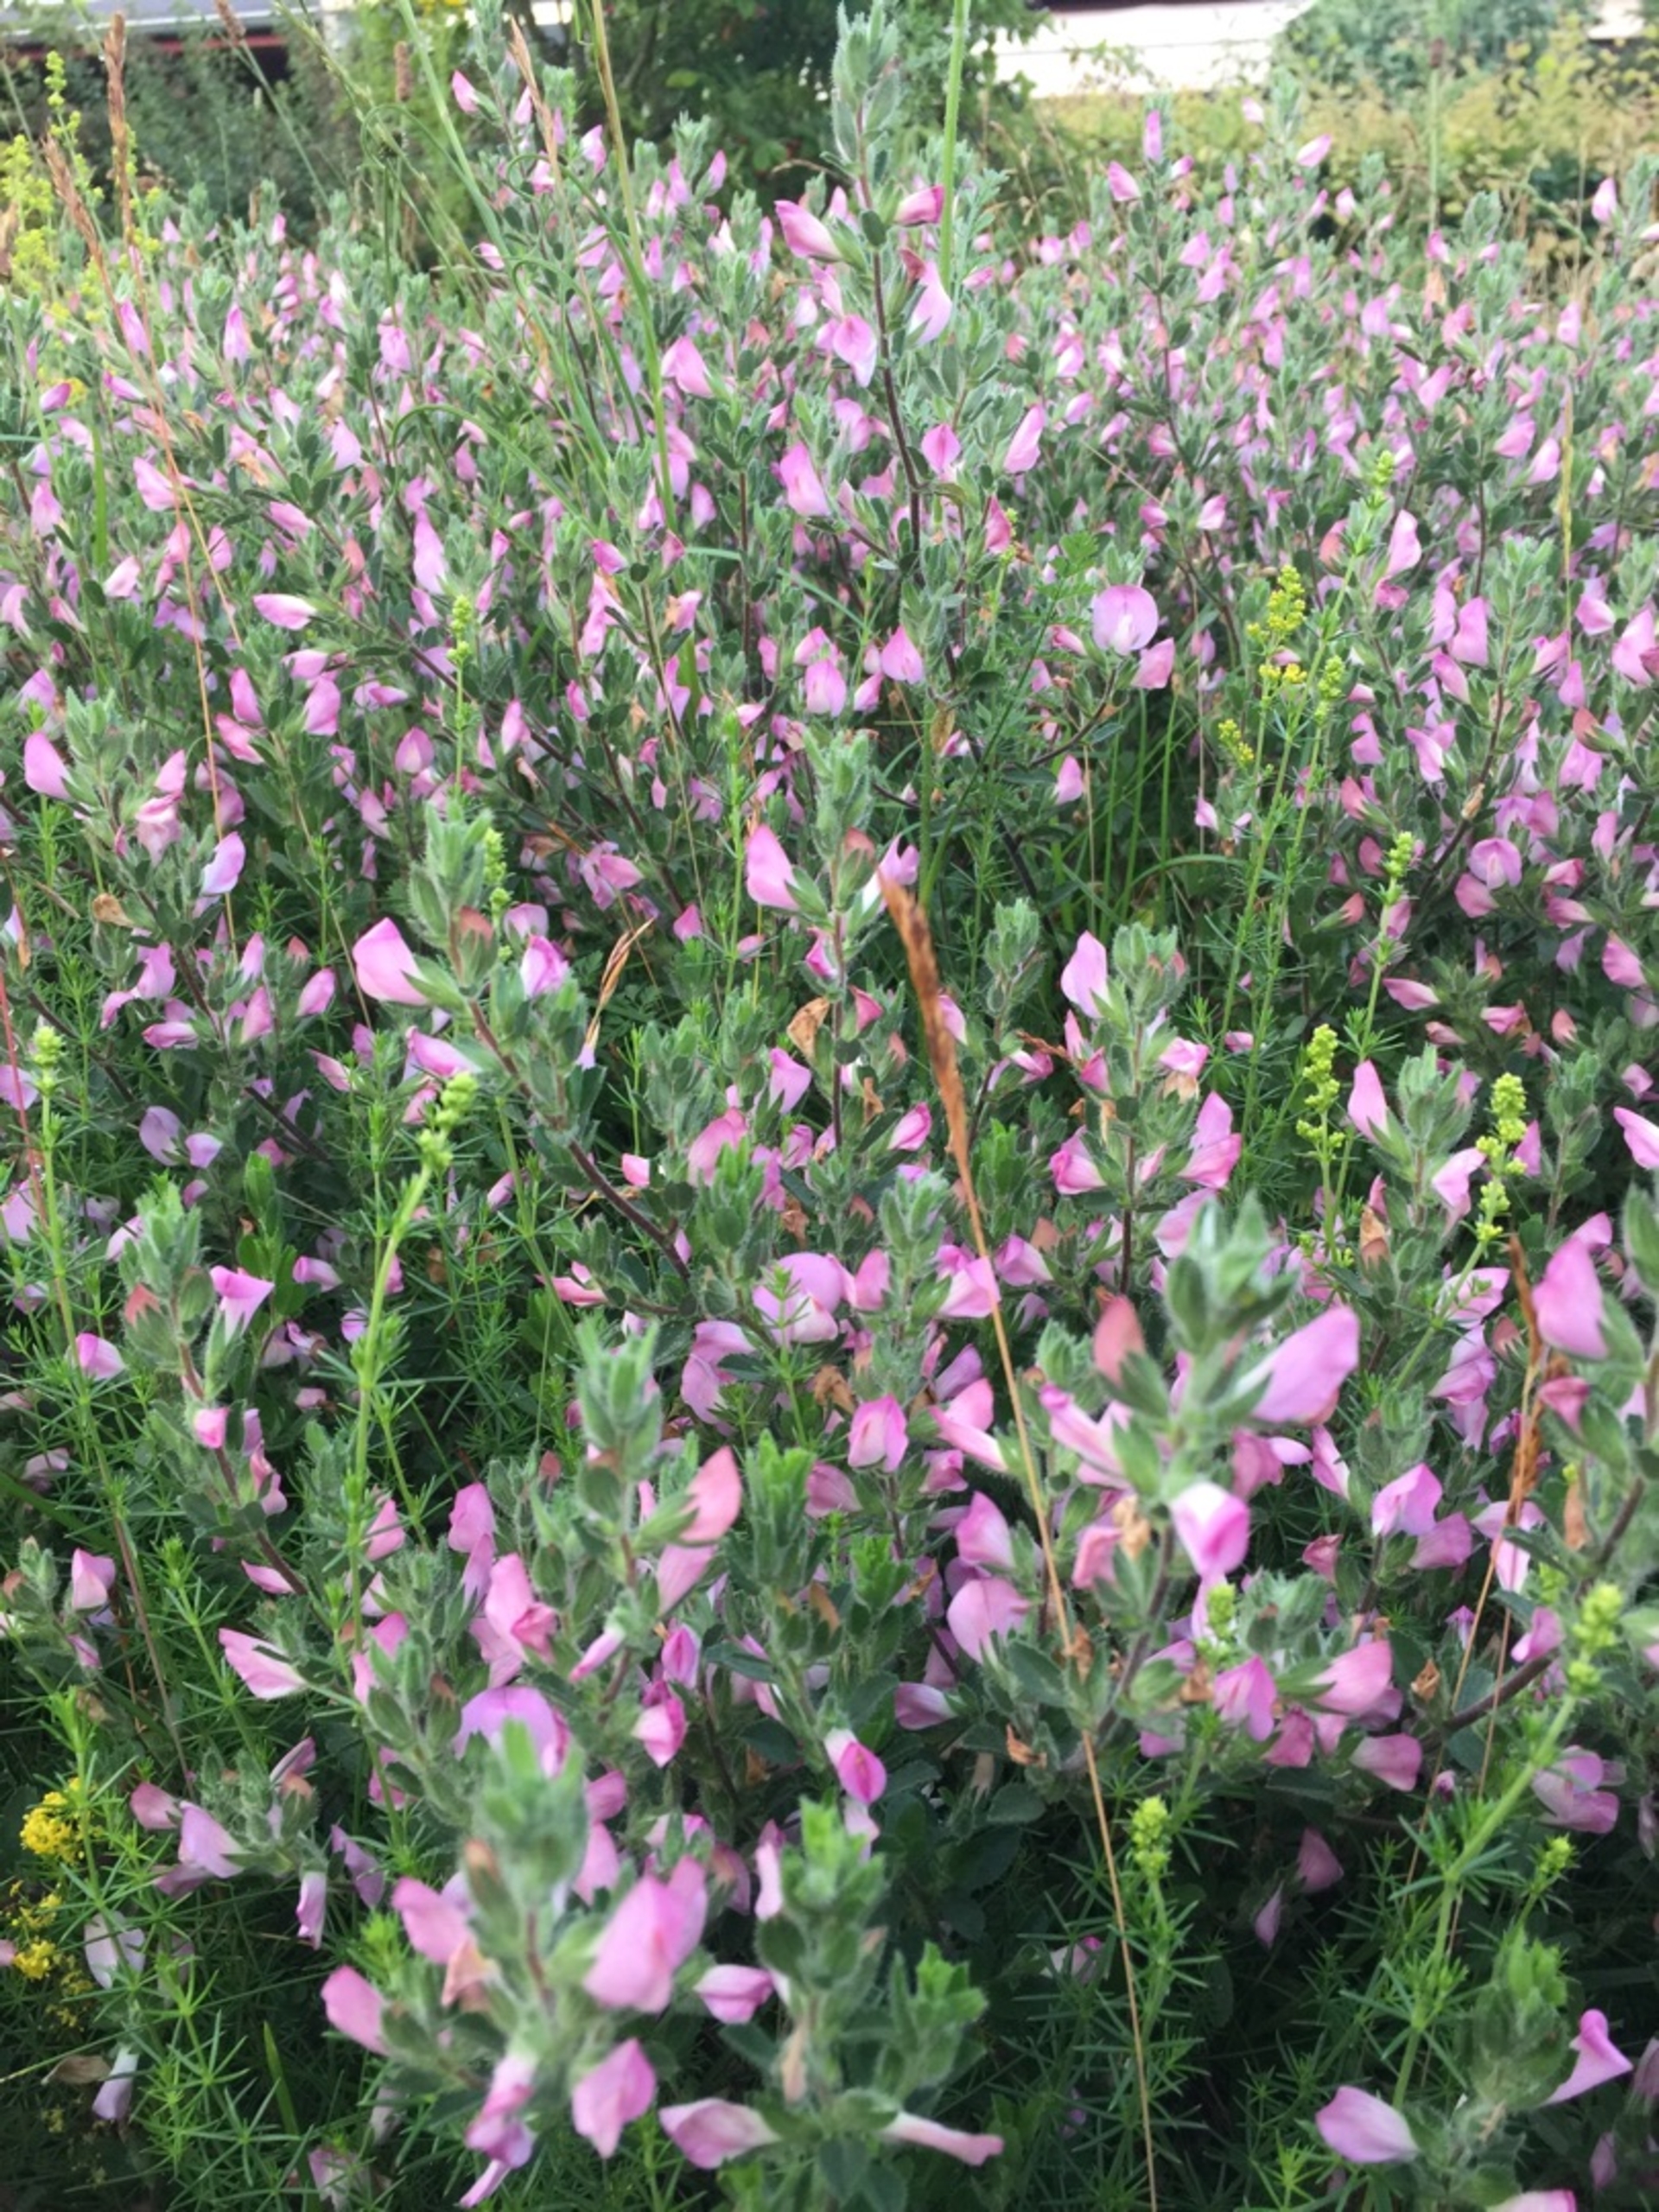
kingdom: Plantae
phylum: Tracheophyta
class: Magnoliopsida
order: Fabales
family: Fabaceae
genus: Ononis
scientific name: Ononis spinosa
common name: Mark-krageklo
